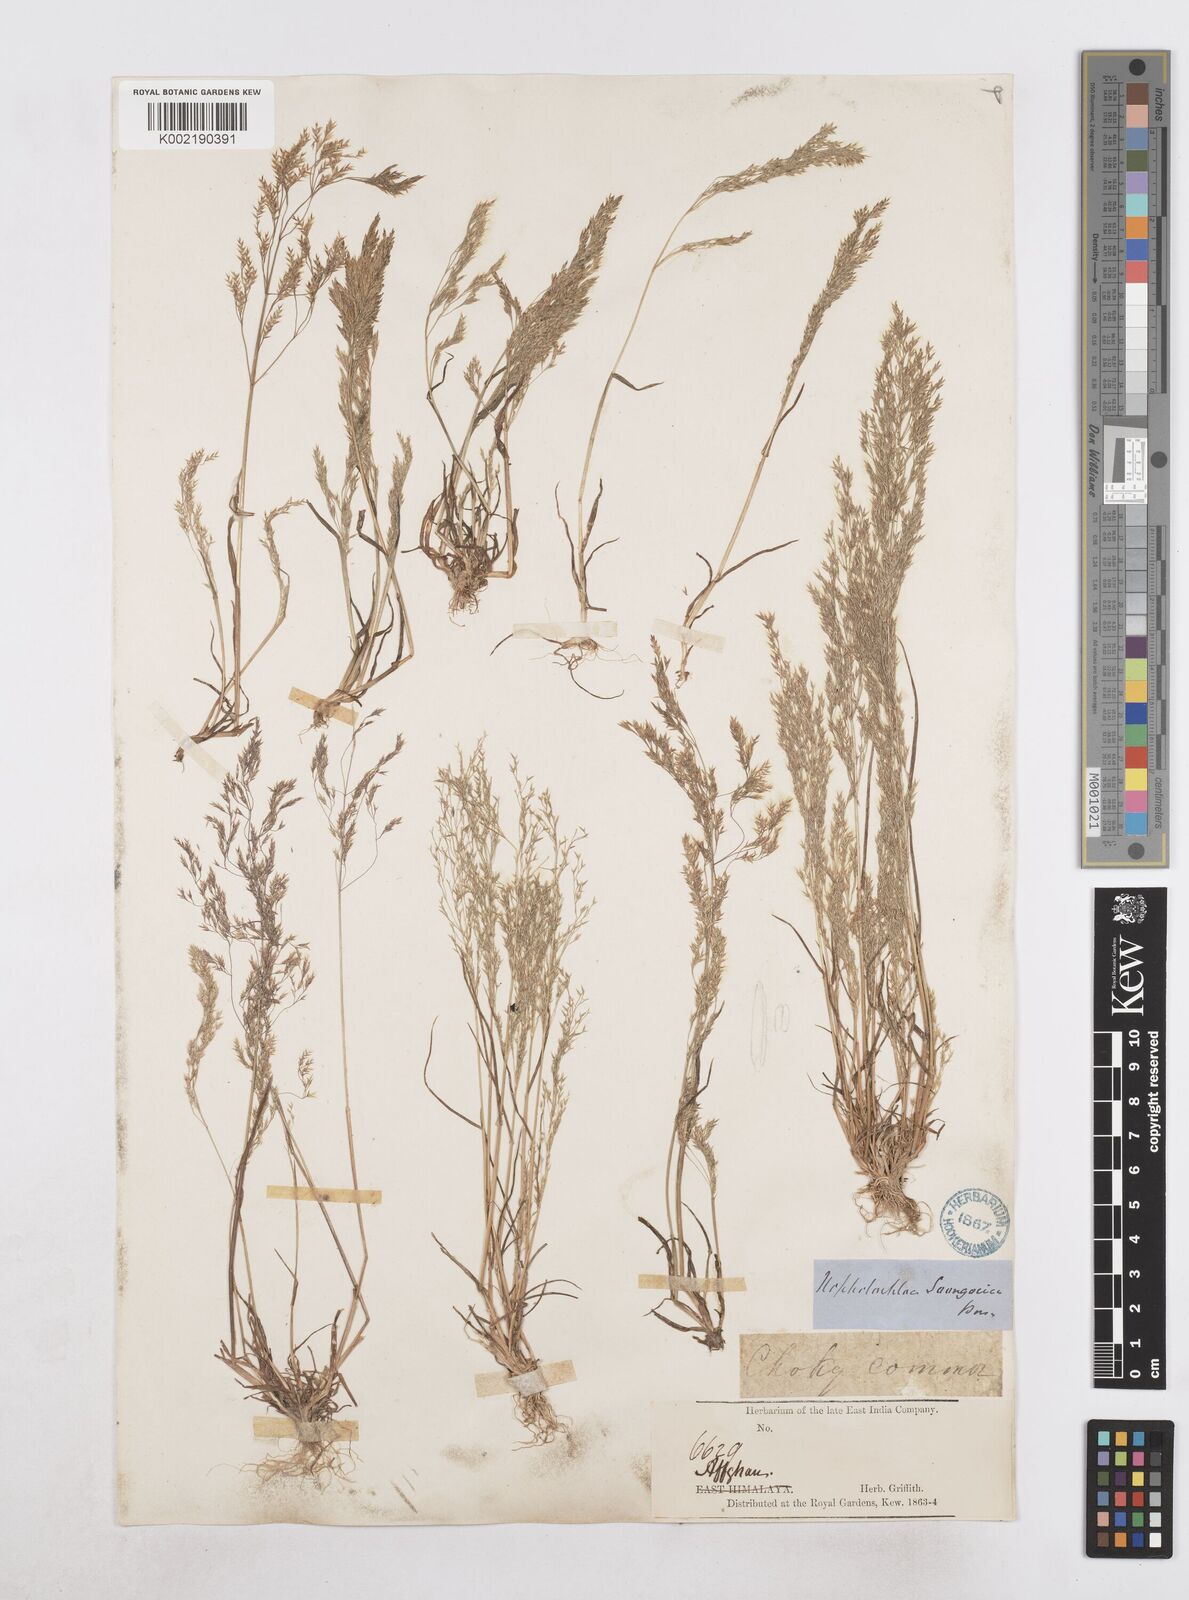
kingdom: Plantae
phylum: Tracheophyta
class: Liliopsida
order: Poales
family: Poaceae
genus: Poa
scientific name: Poa persica
